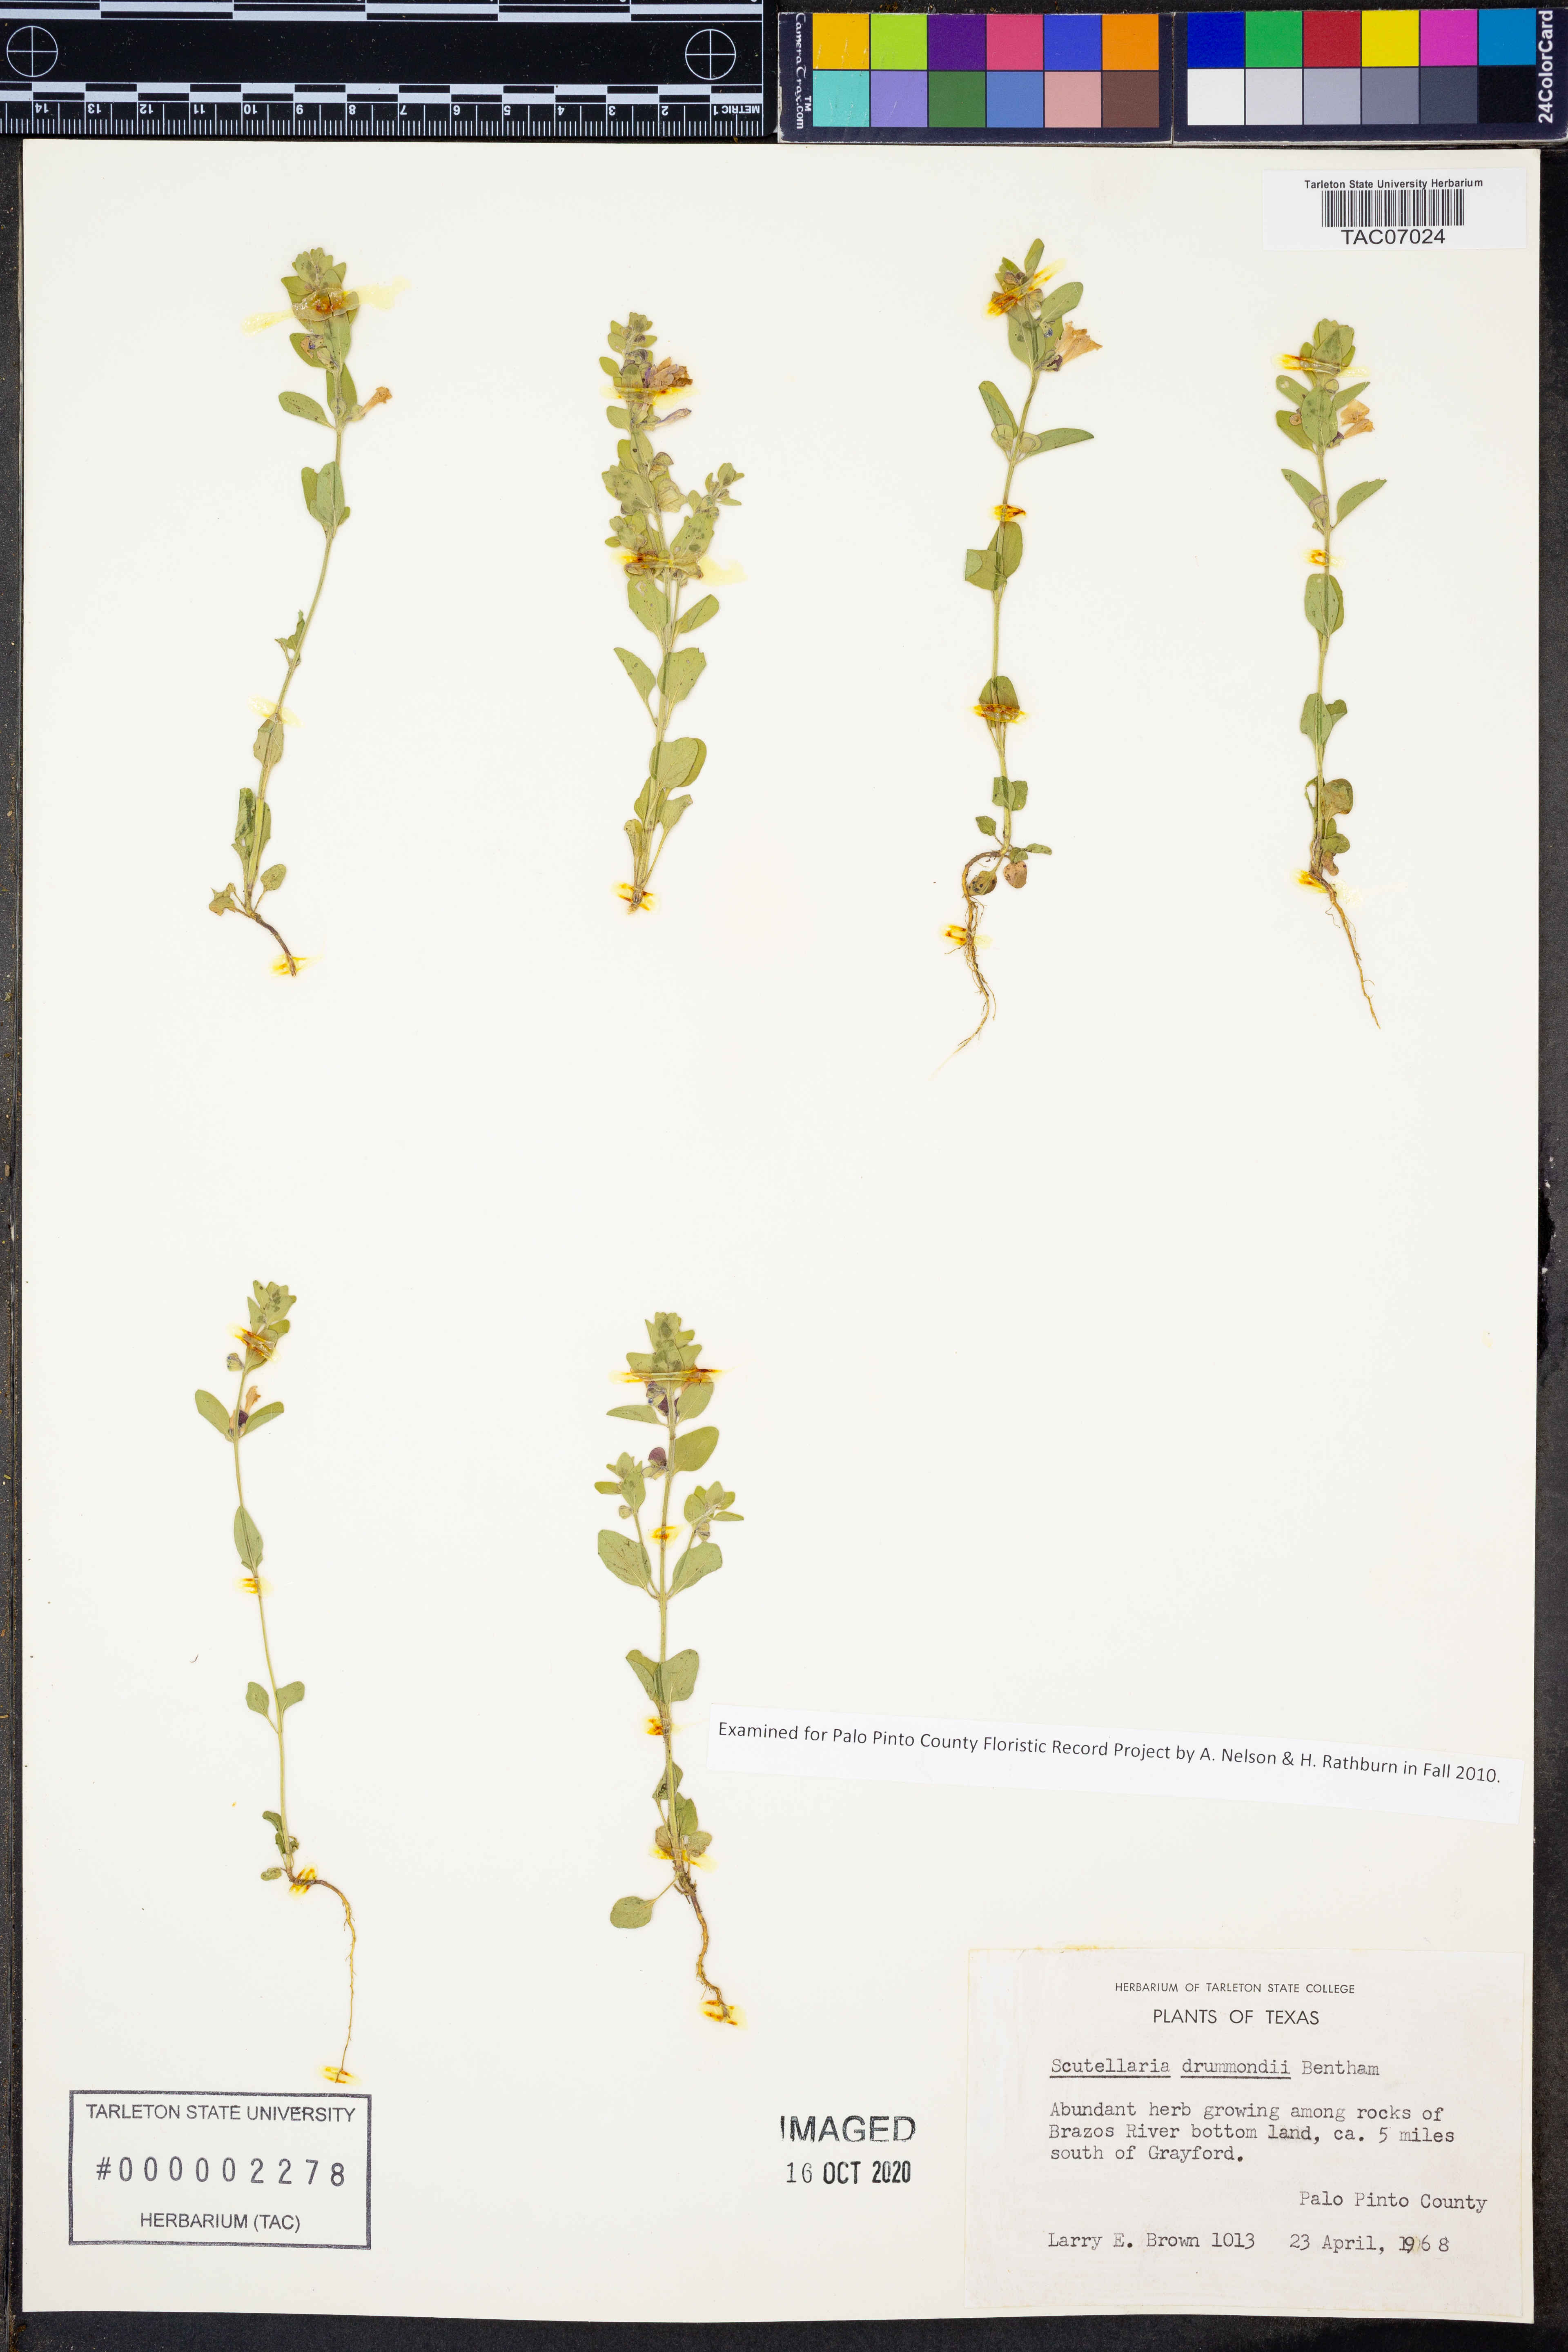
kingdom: Plantae
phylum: Tracheophyta
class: Magnoliopsida
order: Lamiales
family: Lamiaceae
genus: Scutellaria
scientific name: Scutellaria drummondii
